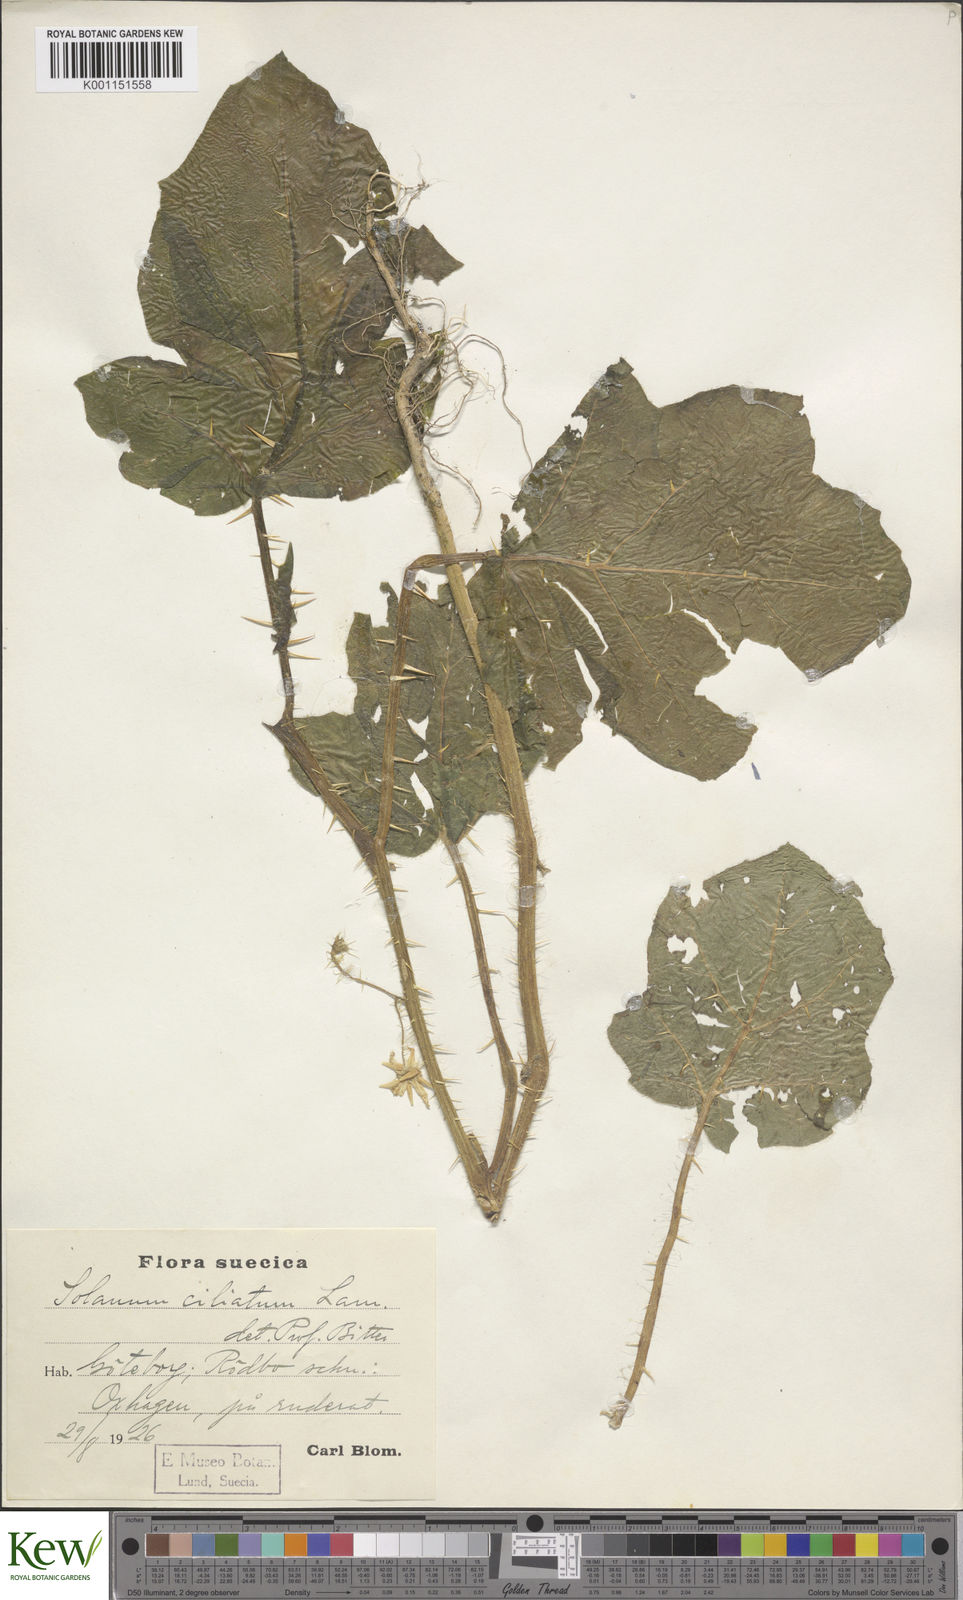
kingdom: Plantae
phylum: Tracheophyta
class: Magnoliopsida
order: Solanales
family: Solanaceae
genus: Solanum
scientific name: Solanum capsicoides
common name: Cockroach berry
